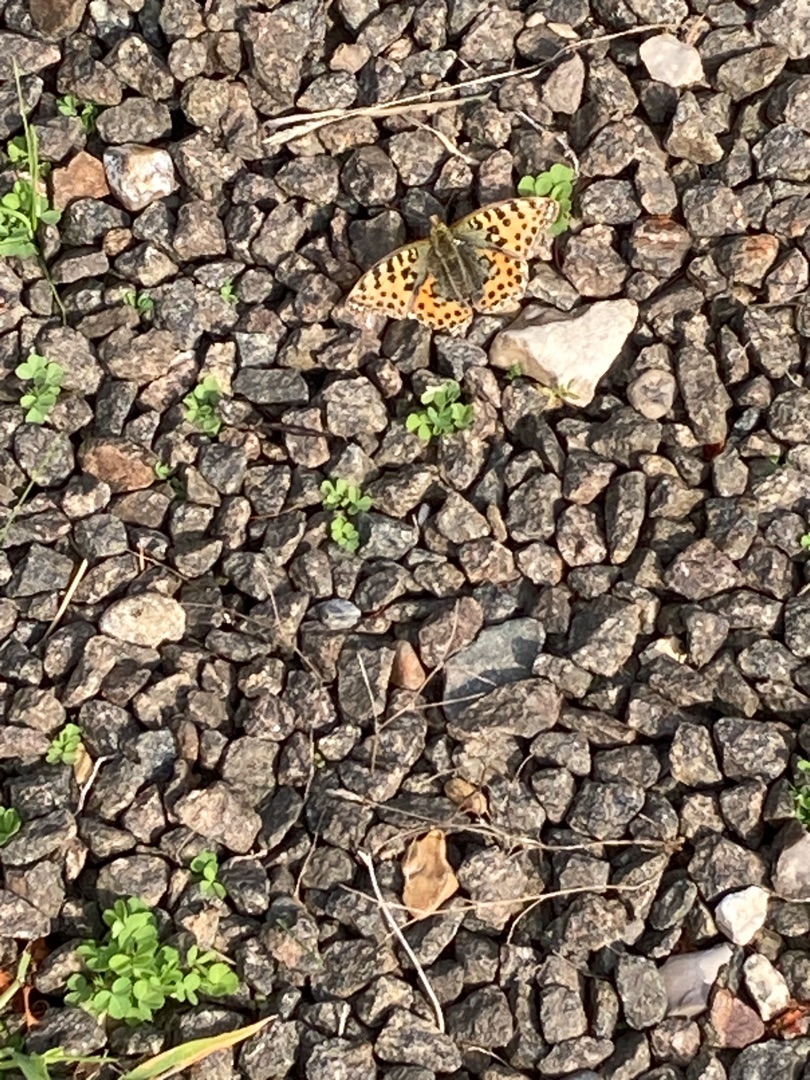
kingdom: Animalia
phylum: Arthropoda
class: Insecta
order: Lepidoptera
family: Nymphalidae
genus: Issoria
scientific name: Issoria lathonia
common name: Storplettet perlemorsommerfugl
